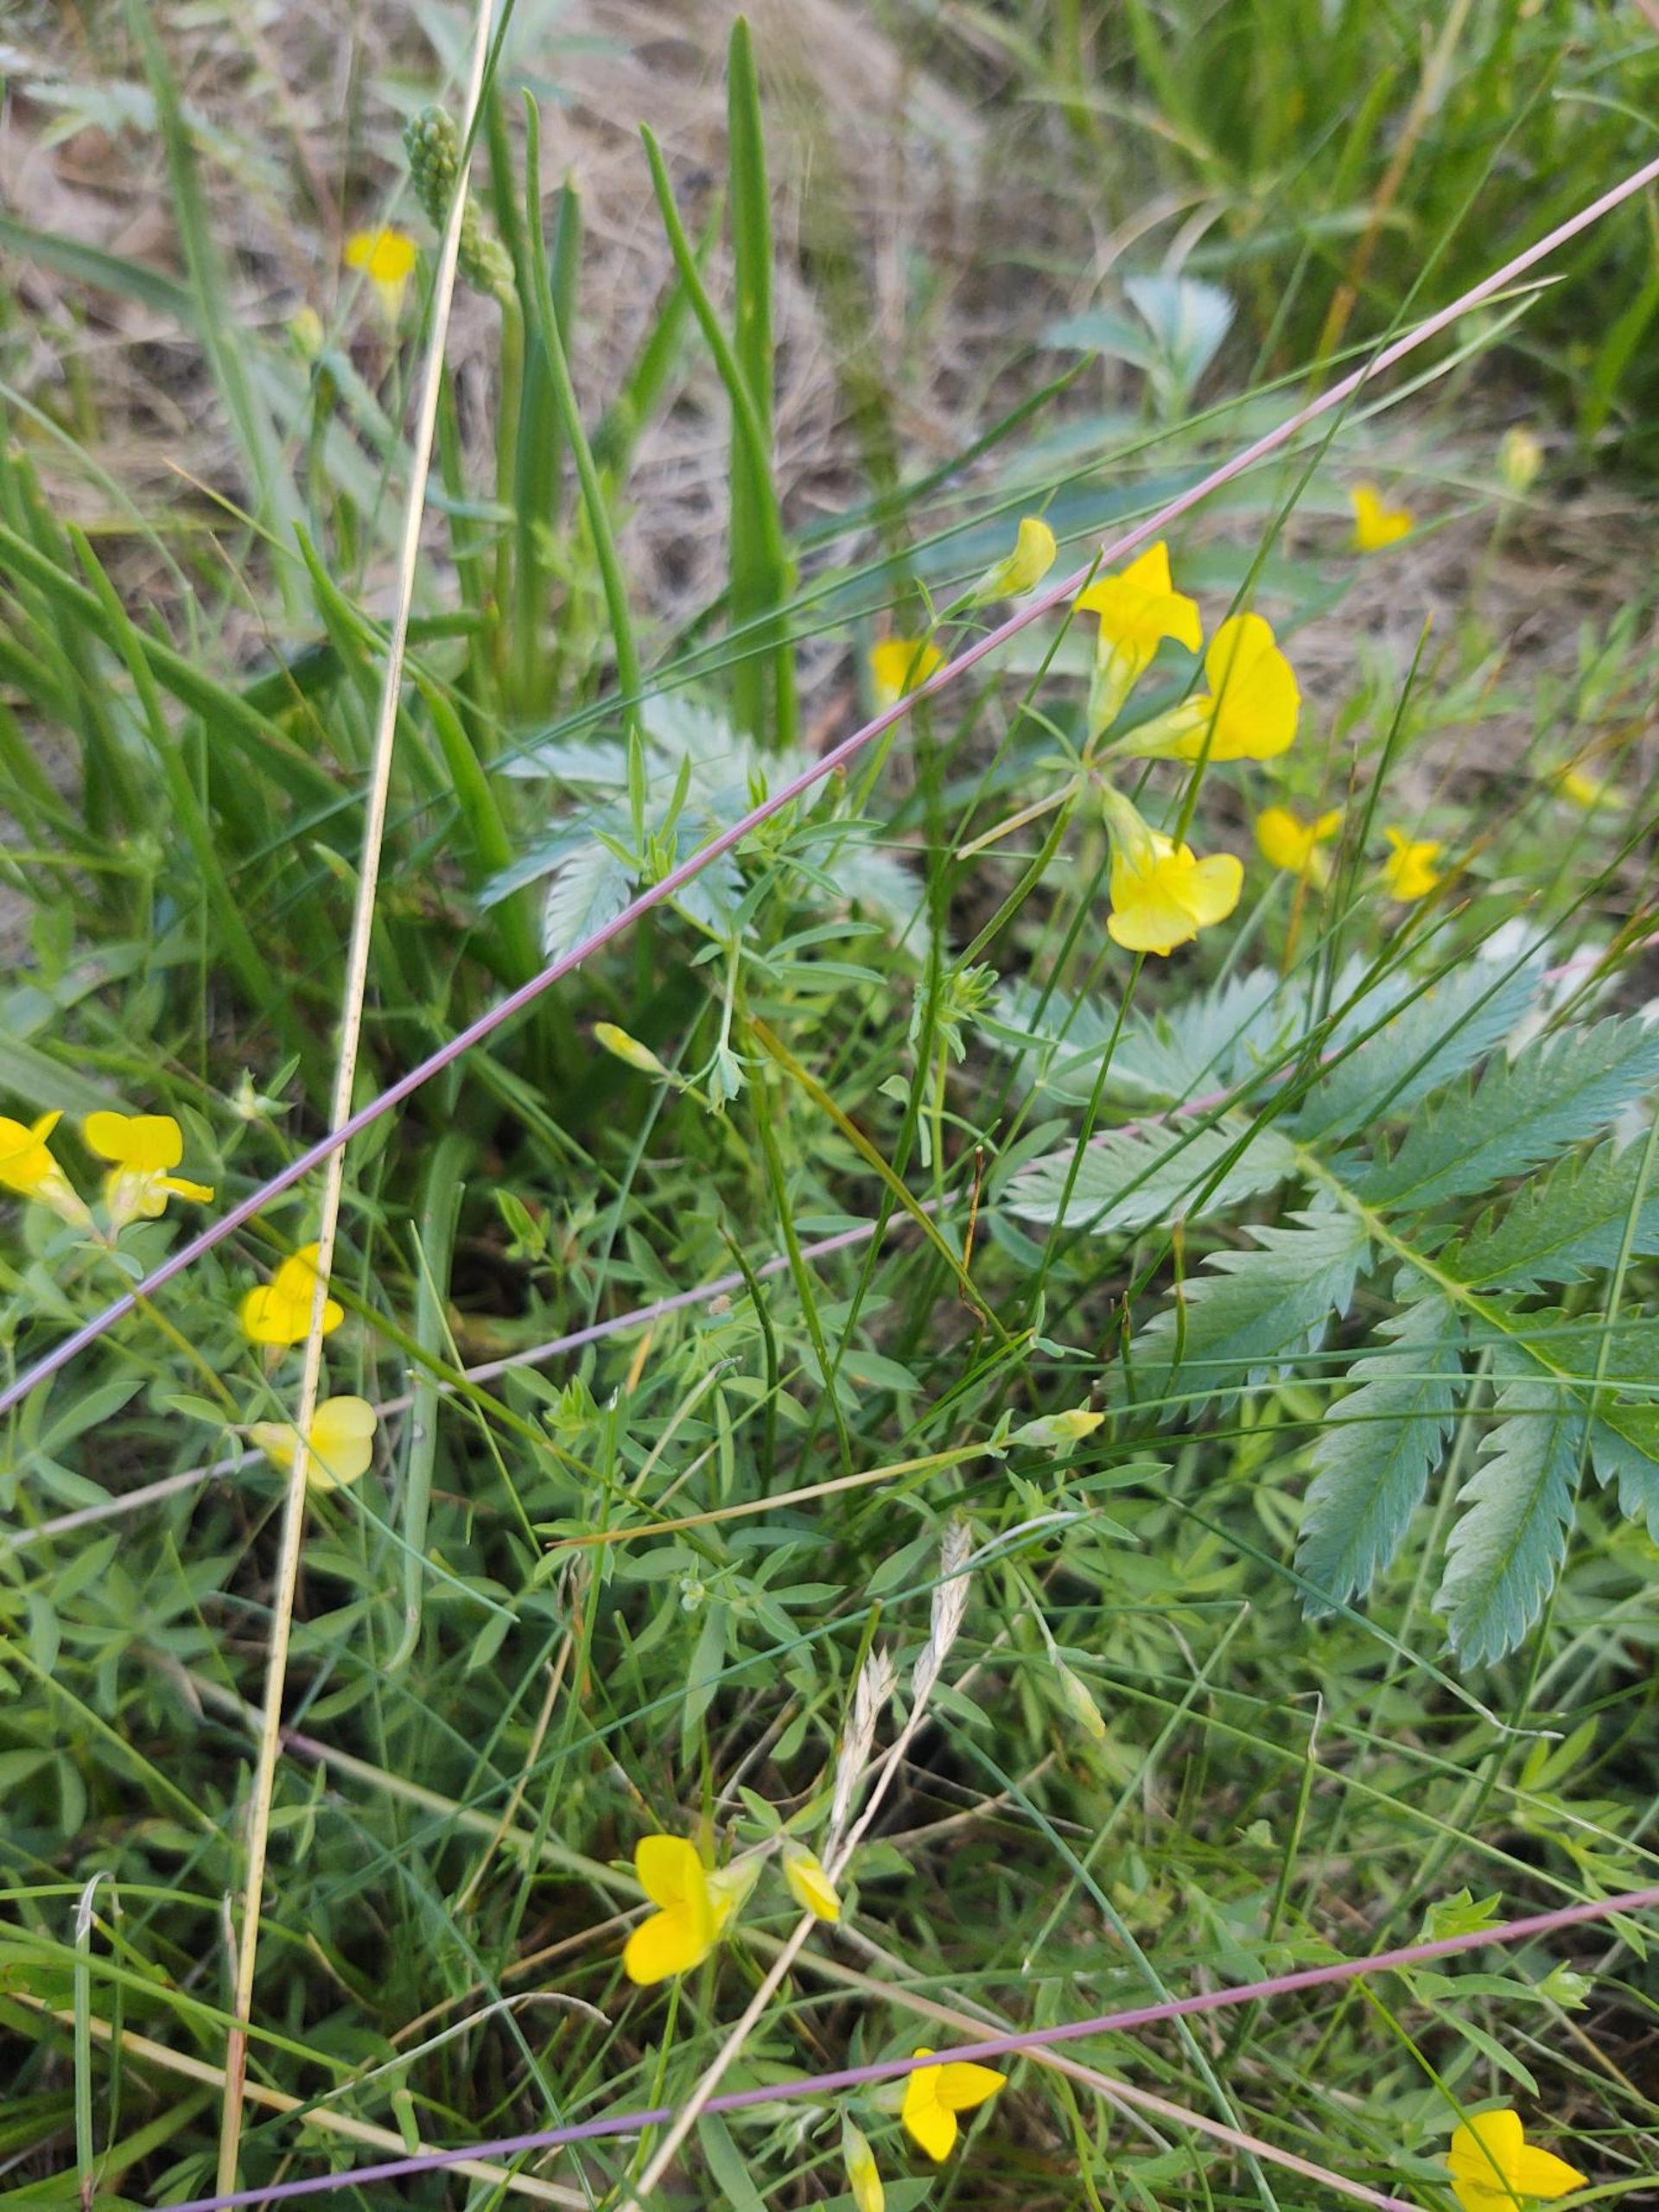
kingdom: Plantae
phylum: Tracheophyta
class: Magnoliopsida
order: Fabales
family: Fabaceae
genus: Lotus
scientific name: Lotus tenuis
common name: Smalbladet kællingetand
